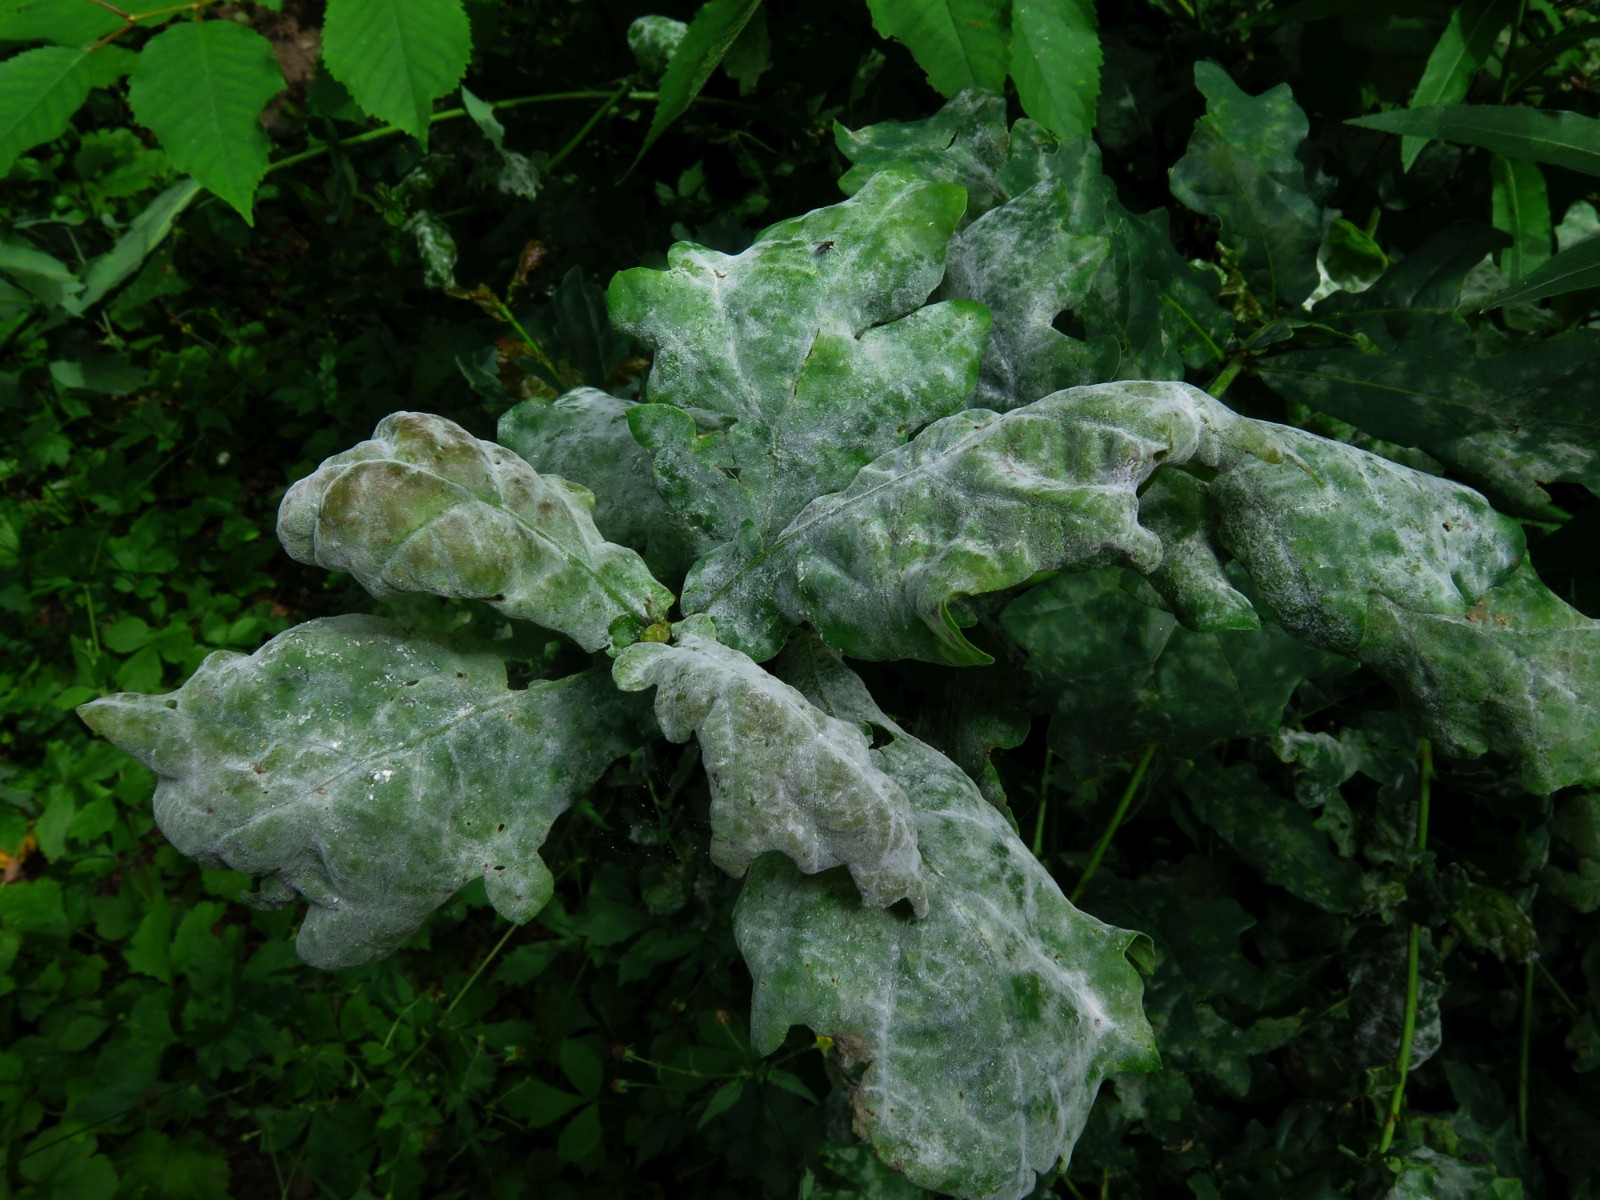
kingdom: Fungi
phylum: Ascomycota
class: Leotiomycetes
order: Helotiales
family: Erysiphaceae
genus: Erysiphe
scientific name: Erysiphe alphitoides
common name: ege-meldug
